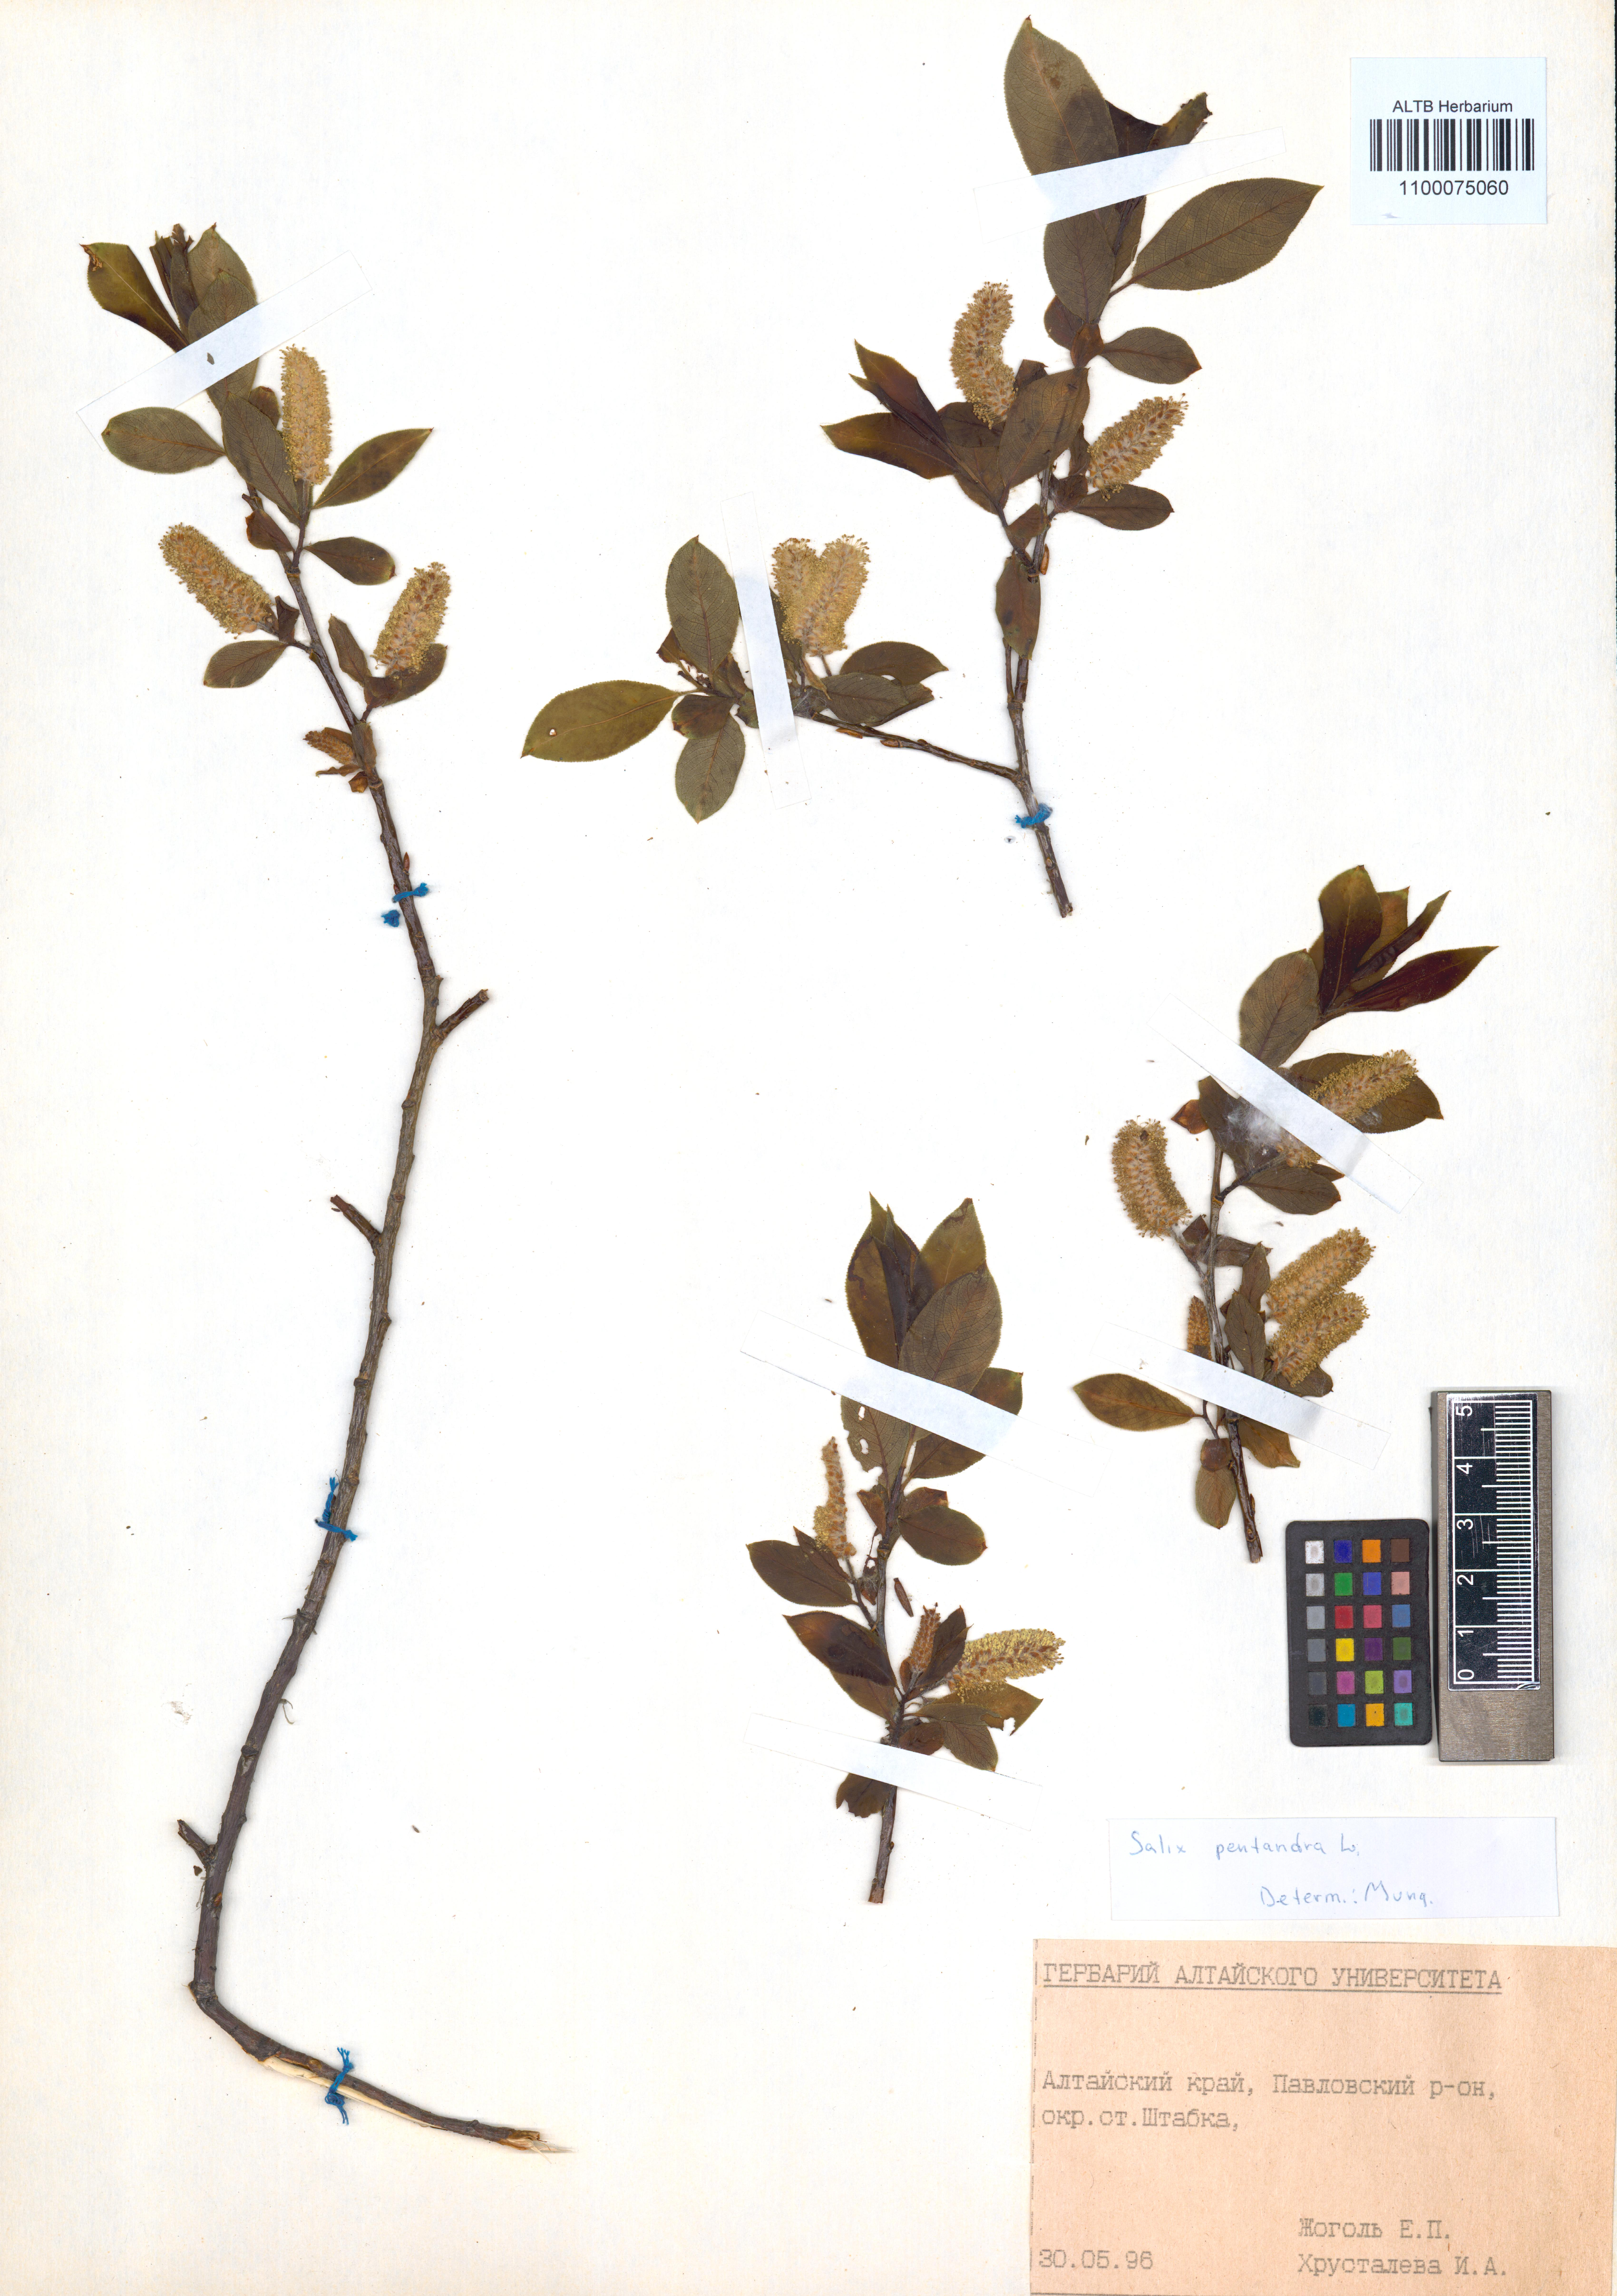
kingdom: Plantae
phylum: Tracheophyta
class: Magnoliopsida
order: Malpighiales
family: Salicaceae
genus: Salix
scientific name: Salix pentandra
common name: Bay willow
